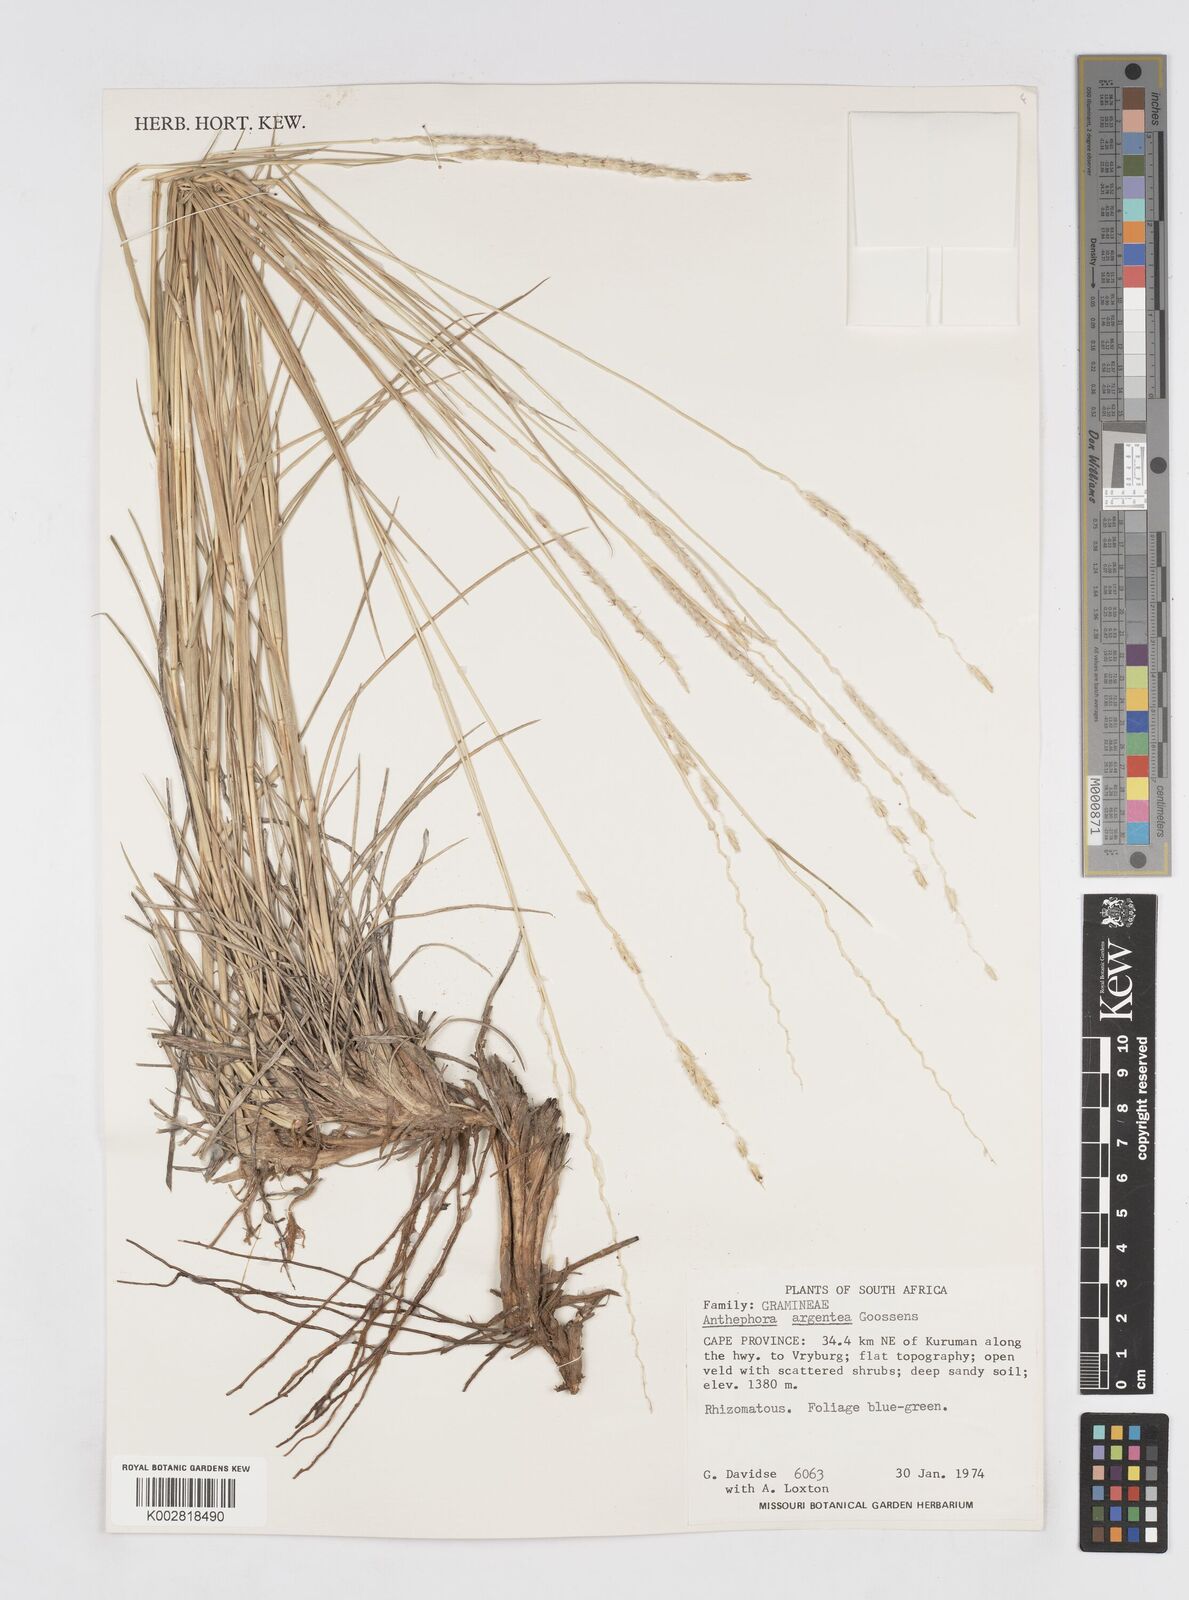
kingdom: Plantae
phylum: Tracheophyta
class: Liliopsida
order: Poales
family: Poaceae
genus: Anthephora
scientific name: Anthephora argentea
